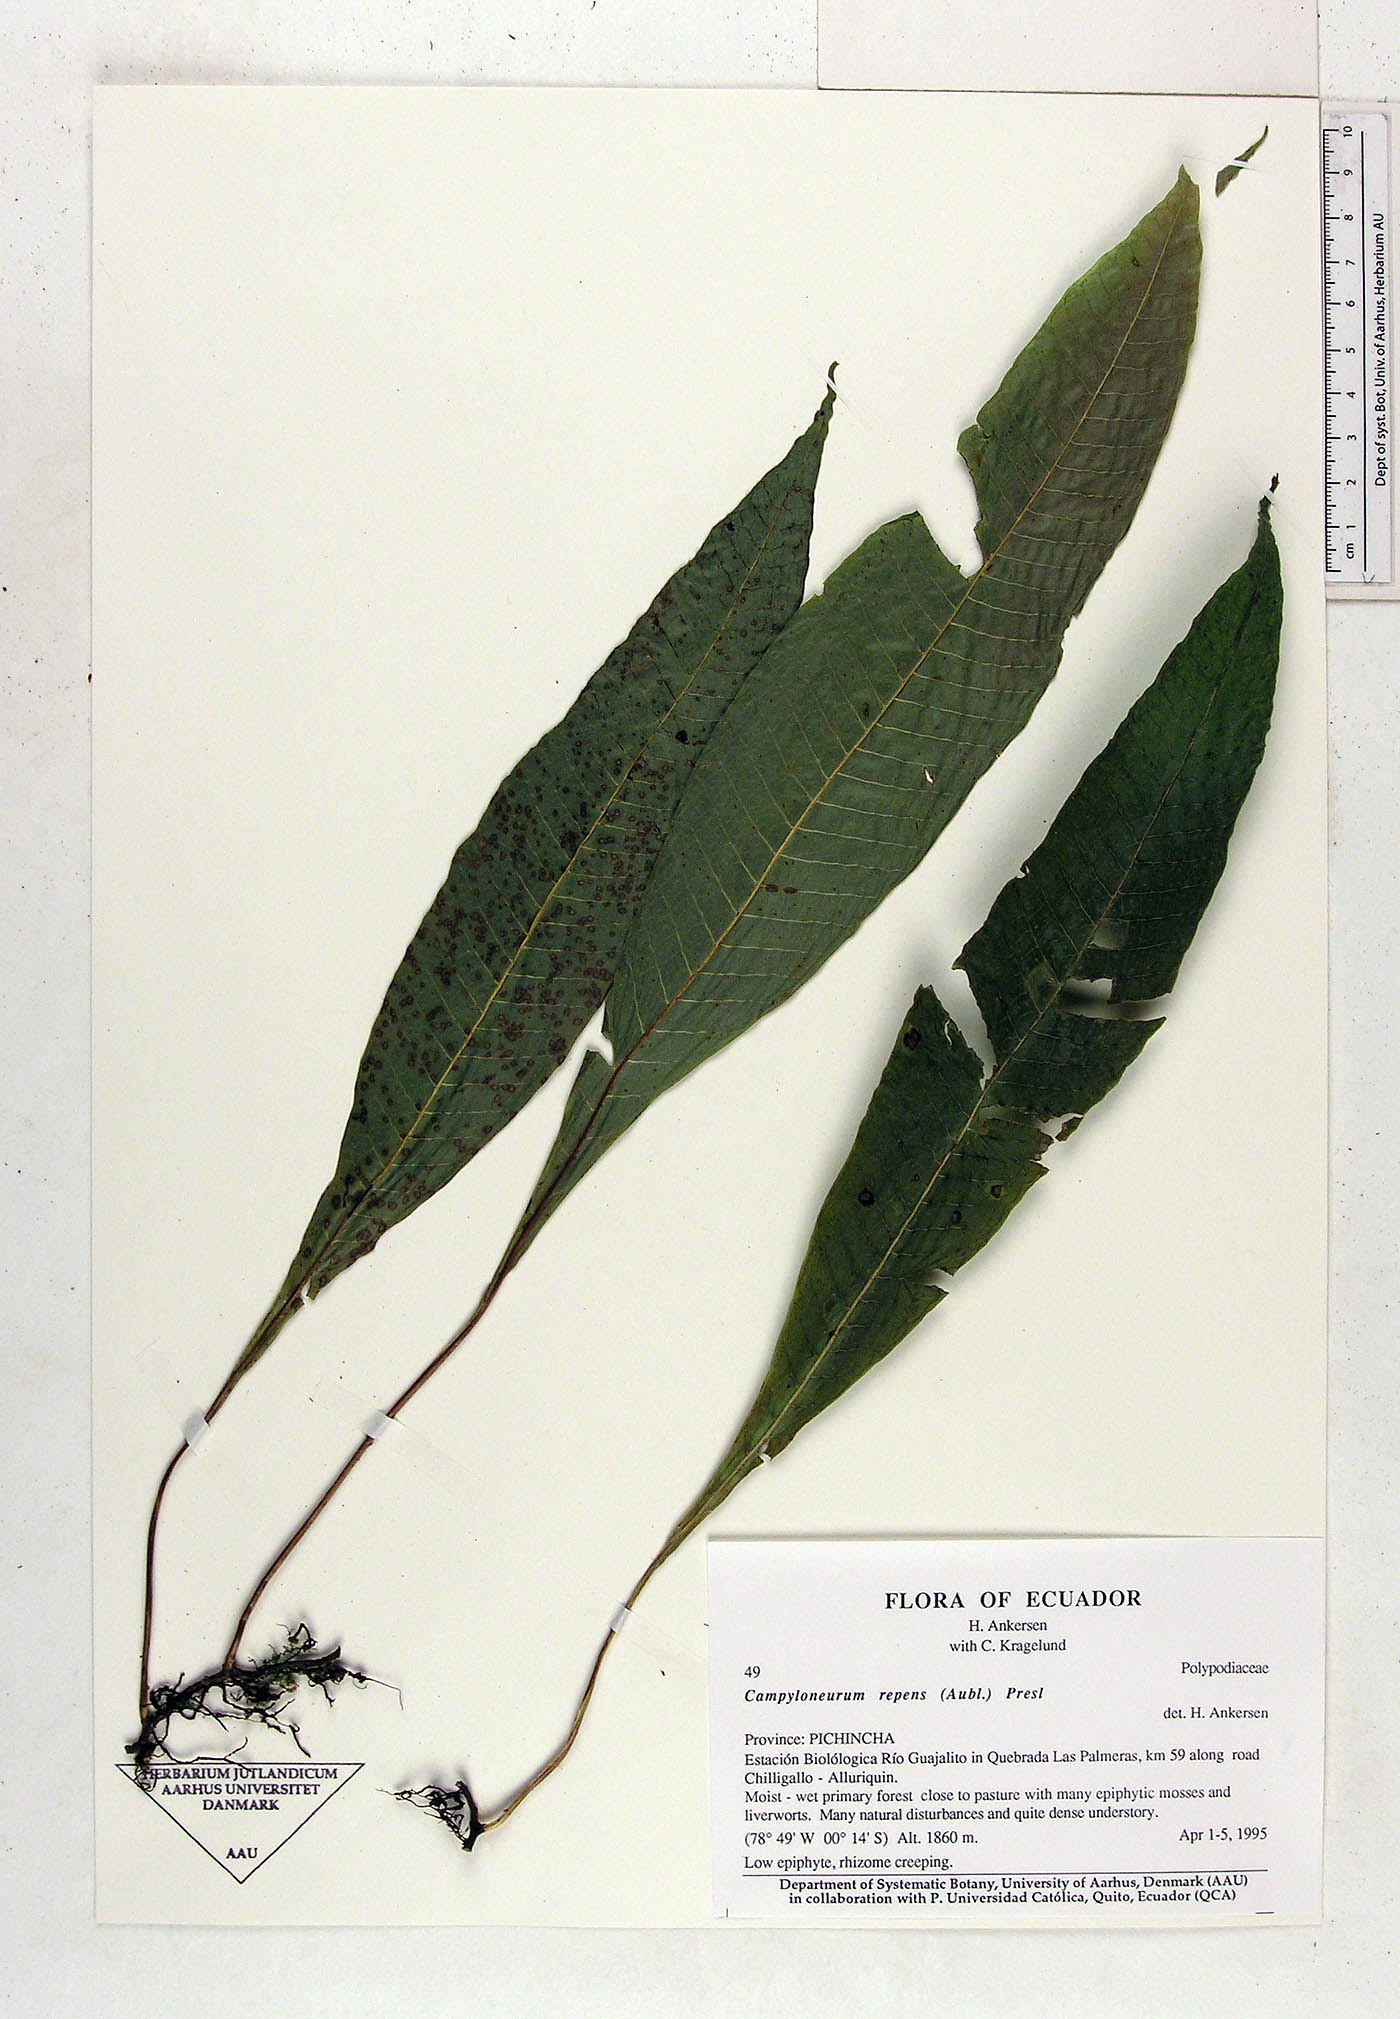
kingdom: Plantae
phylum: Tracheophyta
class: Polypodiopsida
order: Polypodiales
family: Polypodiaceae
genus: Campyloneurum
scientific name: Campyloneurum repens
